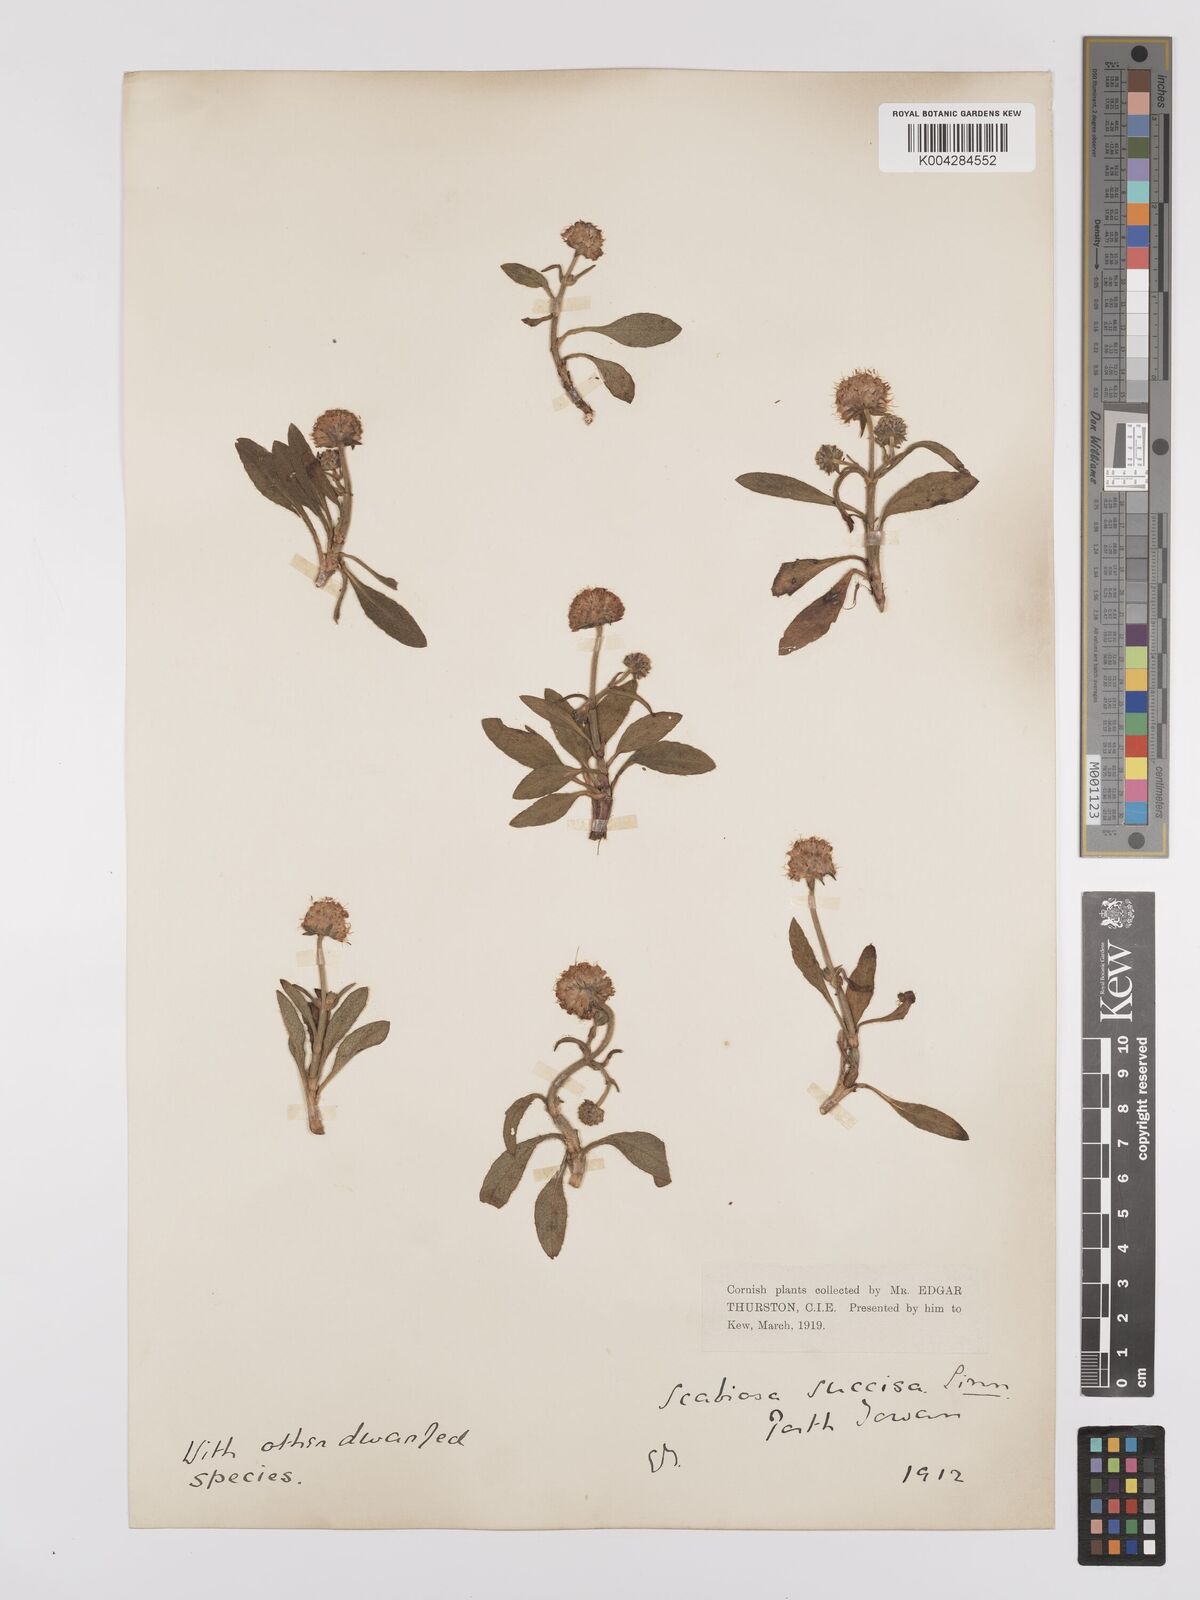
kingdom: Plantae
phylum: Tracheophyta
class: Magnoliopsida
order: Dipsacales
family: Caprifoliaceae
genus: Succisa
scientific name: Succisa pratensis
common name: Devil's-bit
